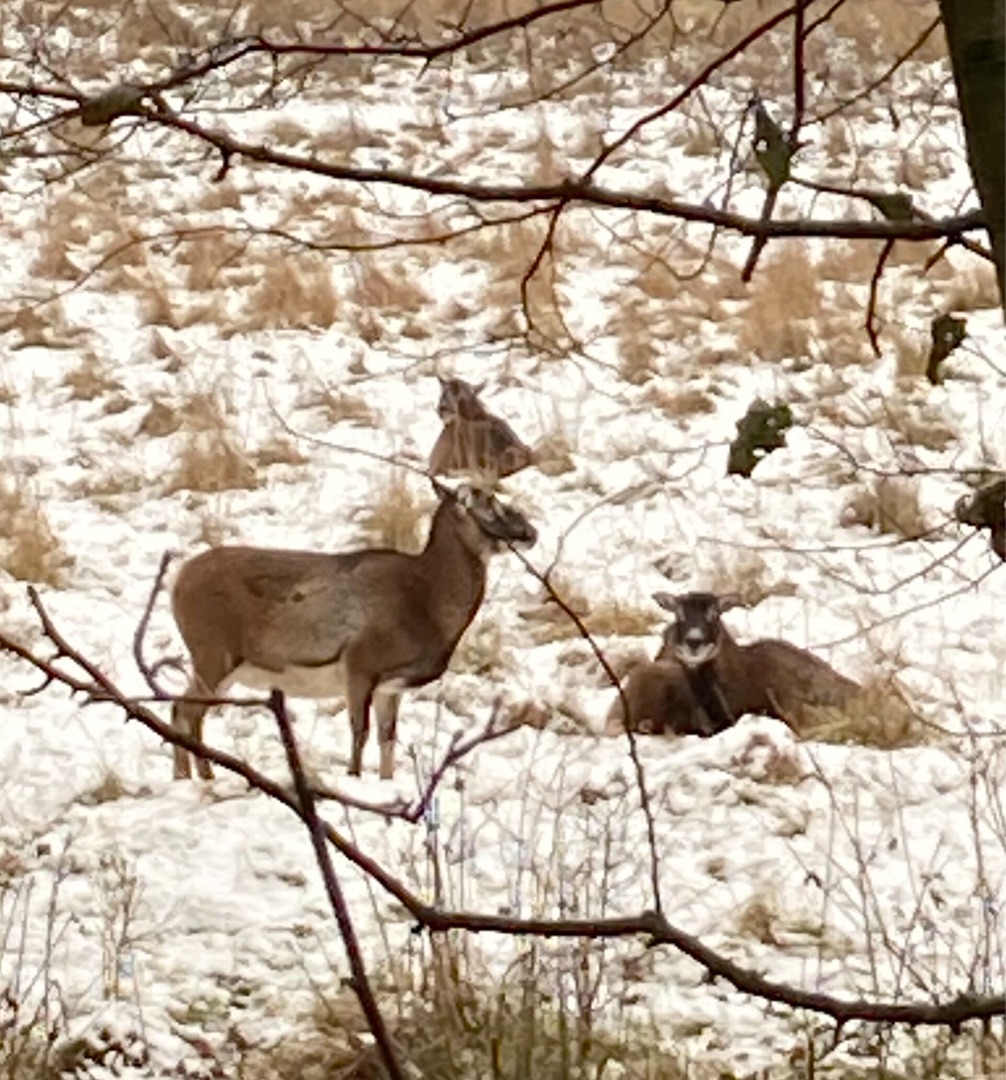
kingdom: Animalia
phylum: Chordata
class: Mammalia
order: Artiodactyla
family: Bovidae
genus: Ovis
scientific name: Ovis aries
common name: Muflon
